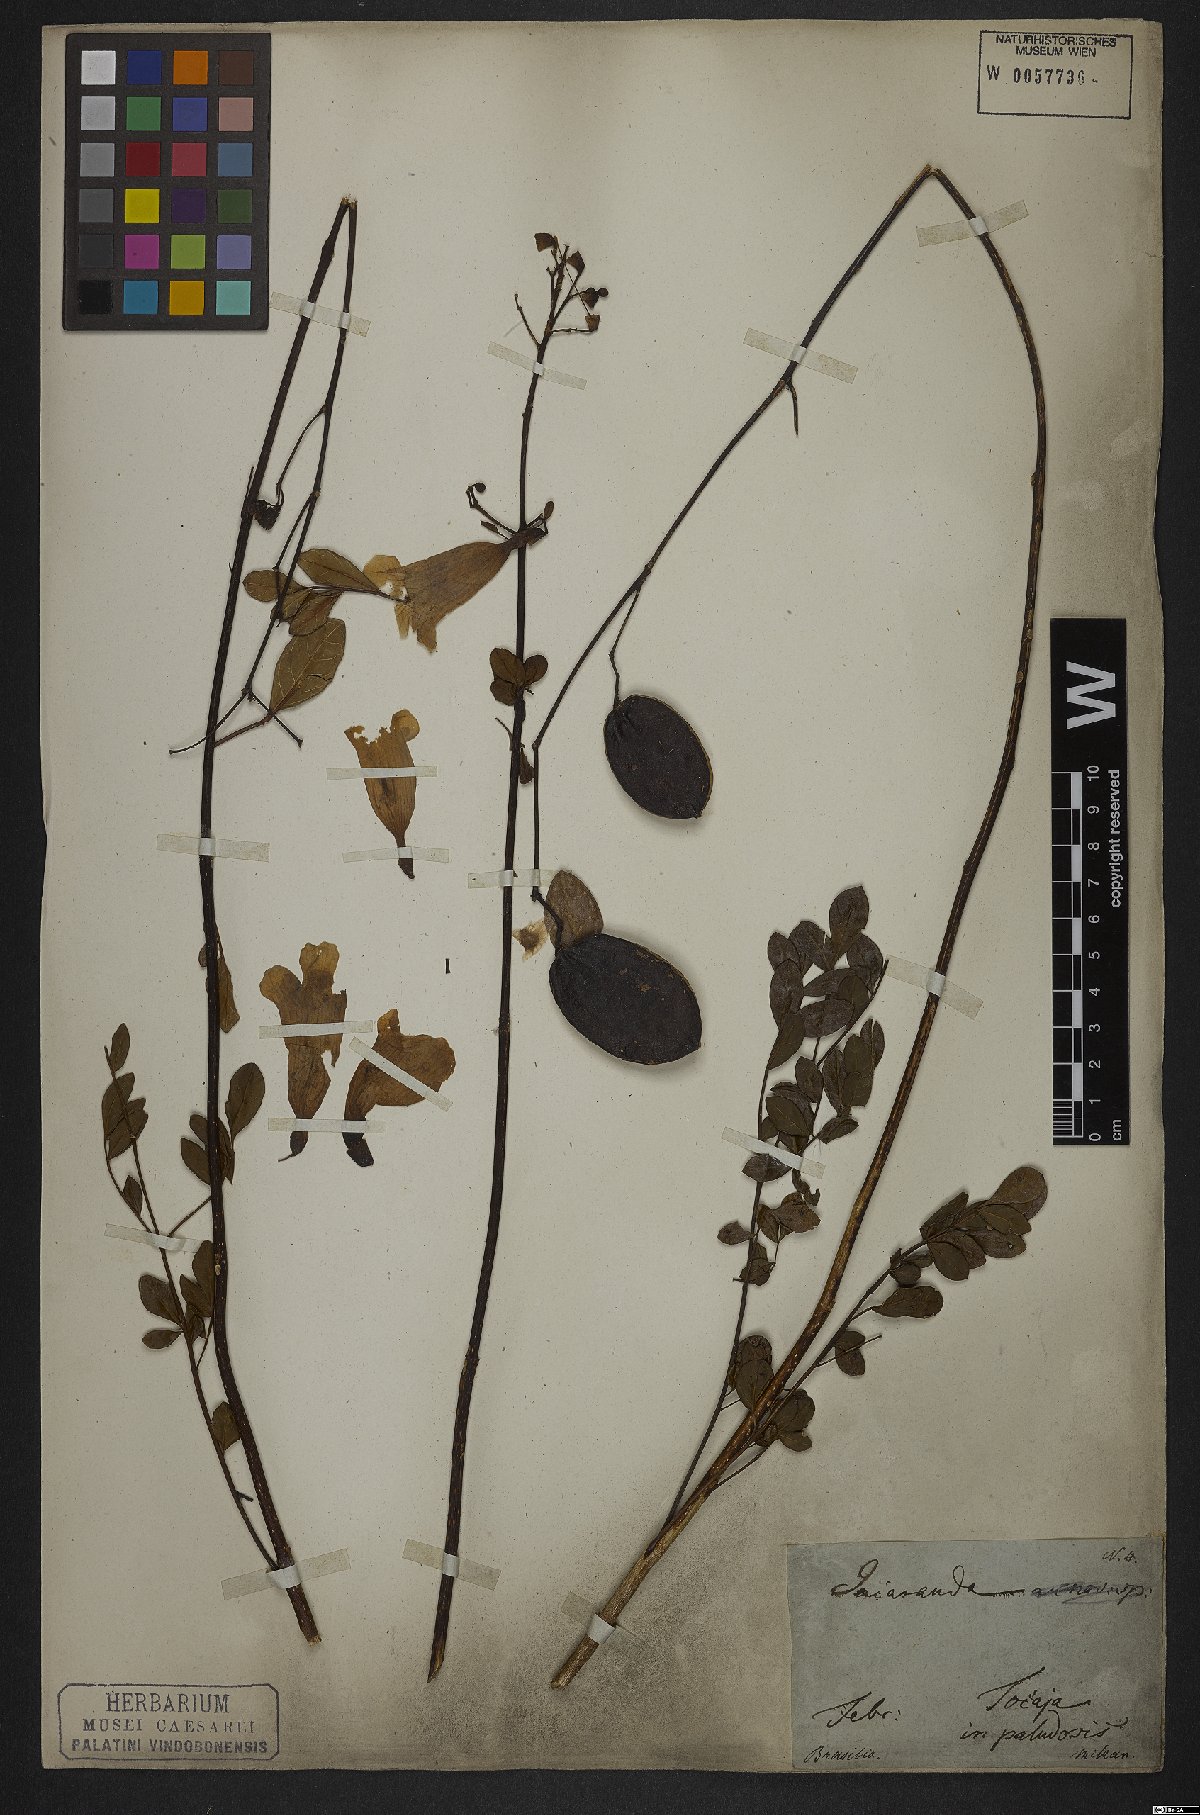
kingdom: Plantae
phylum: Tracheophyta
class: Magnoliopsida
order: Lamiales
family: Bignoniaceae
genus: Jacaranda
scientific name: Jacaranda caroba
